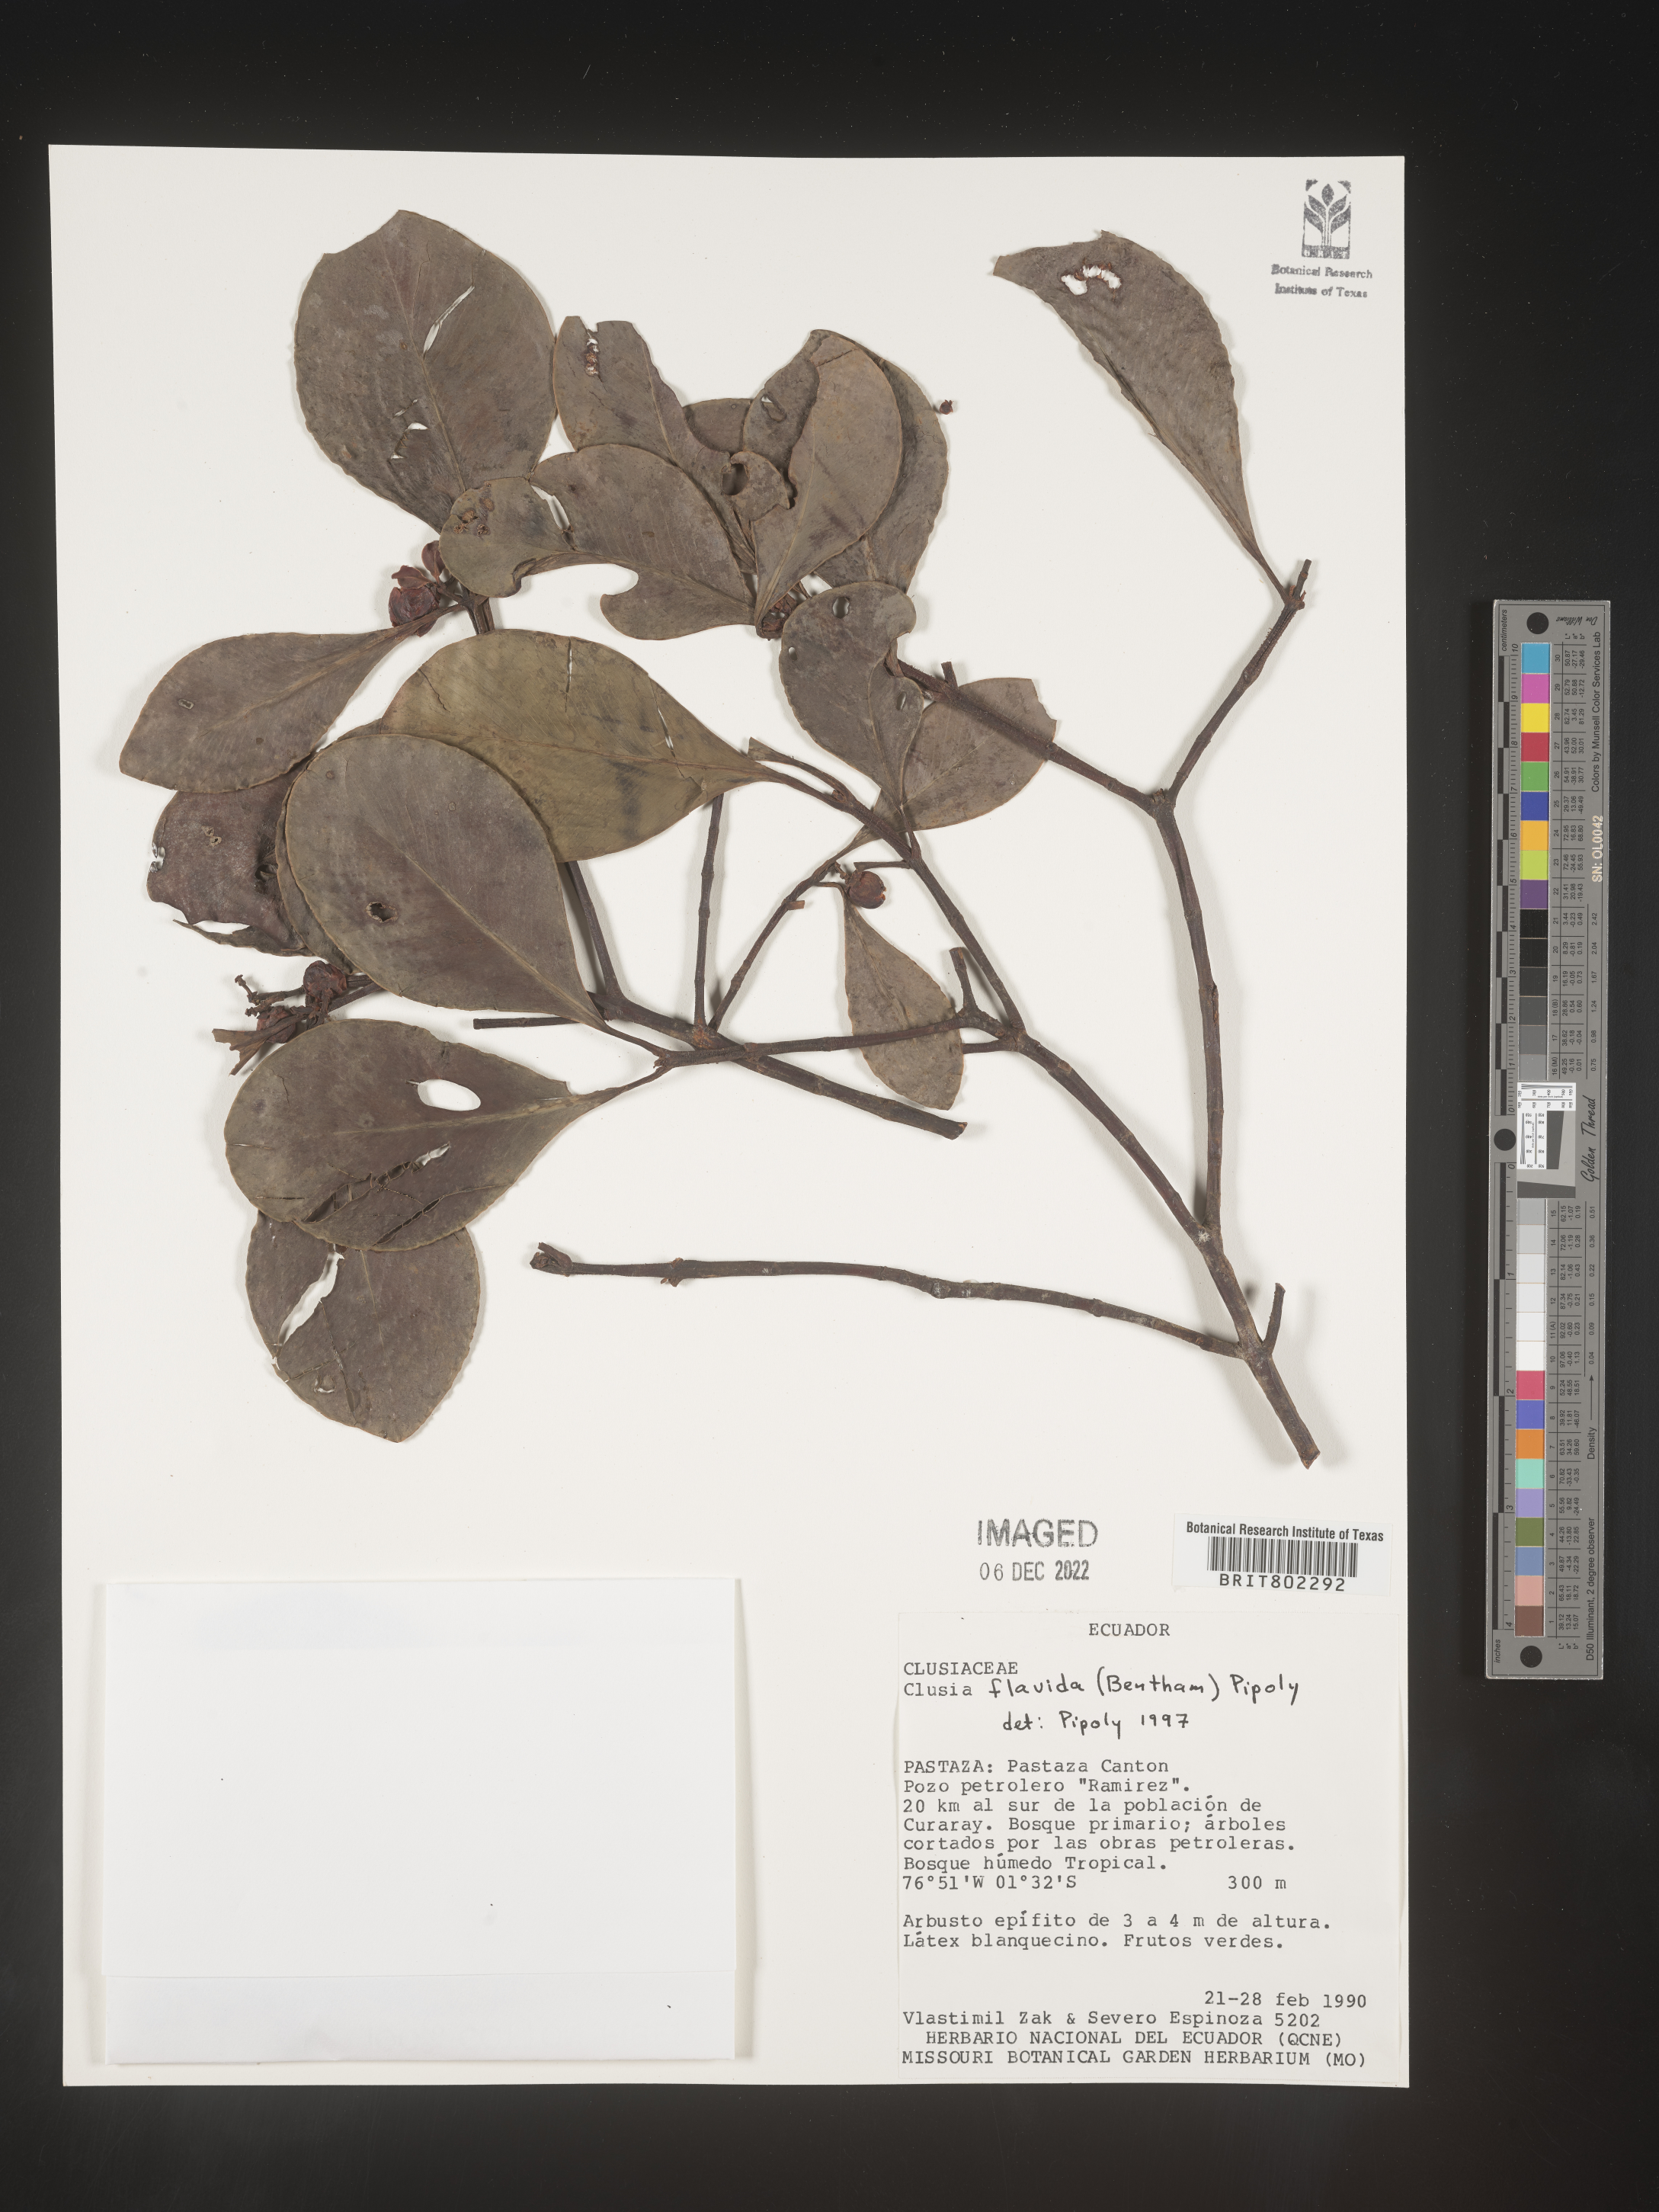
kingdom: Plantae
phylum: Tracheophyta
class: Magnoliopsida
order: Malpighiales
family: Clusiaceae
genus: Clusia
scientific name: Clusia flavida
